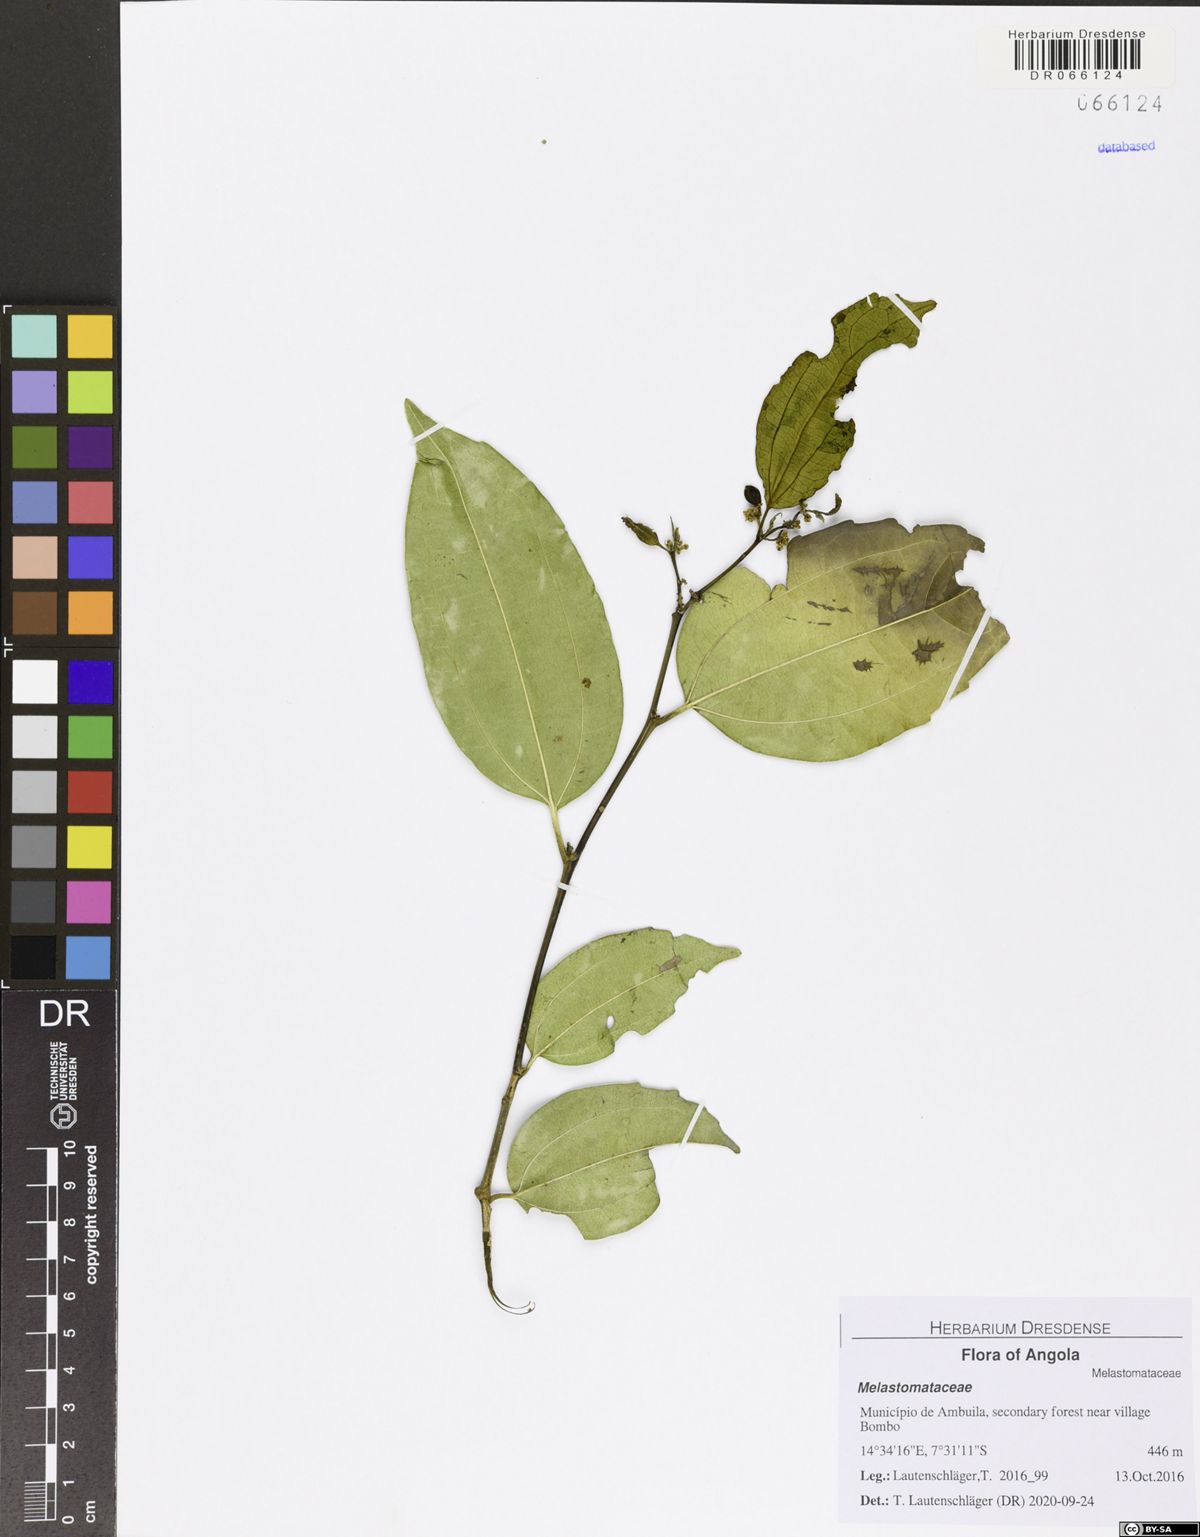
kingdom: Plantae
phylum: Tracheophyta
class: Magnoliopsida
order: Myrtales
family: Melastomataceae
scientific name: Melastomataceae
